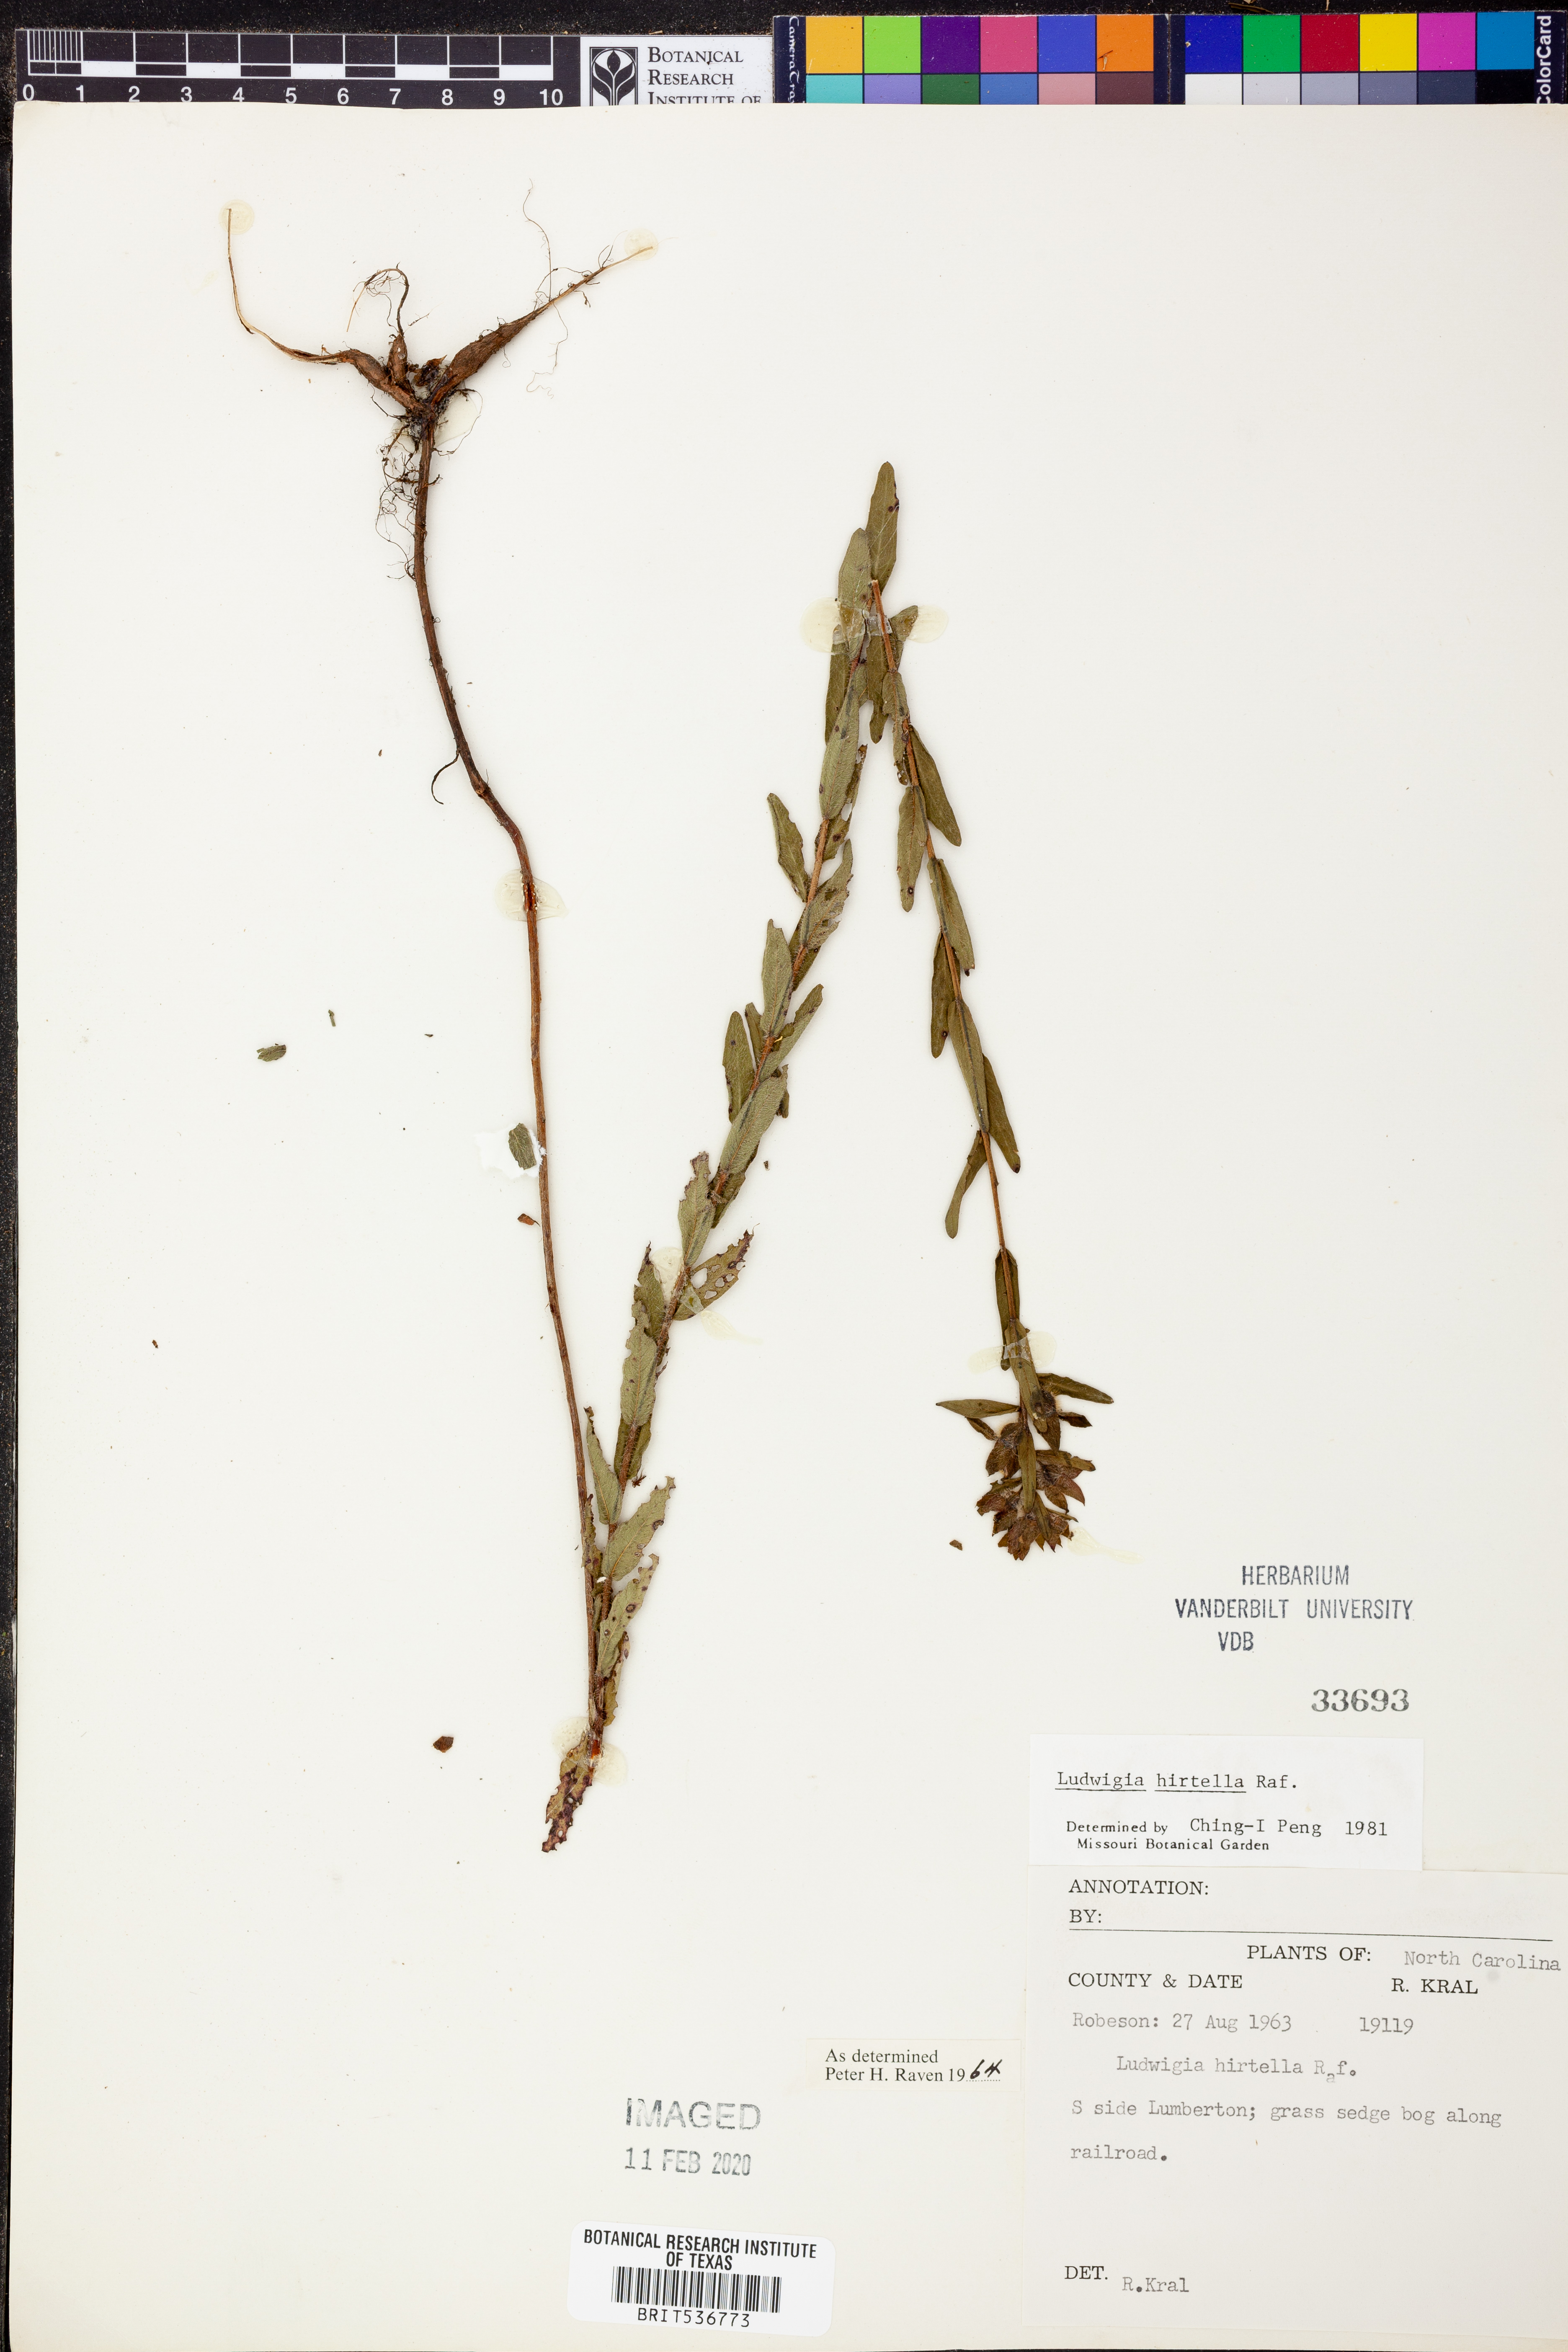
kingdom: Plantae
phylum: Tracheophyta
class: Magnoliopsida
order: Myrtales
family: Onagraceae
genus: Ludwigia
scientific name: Ludwigia hirtella
